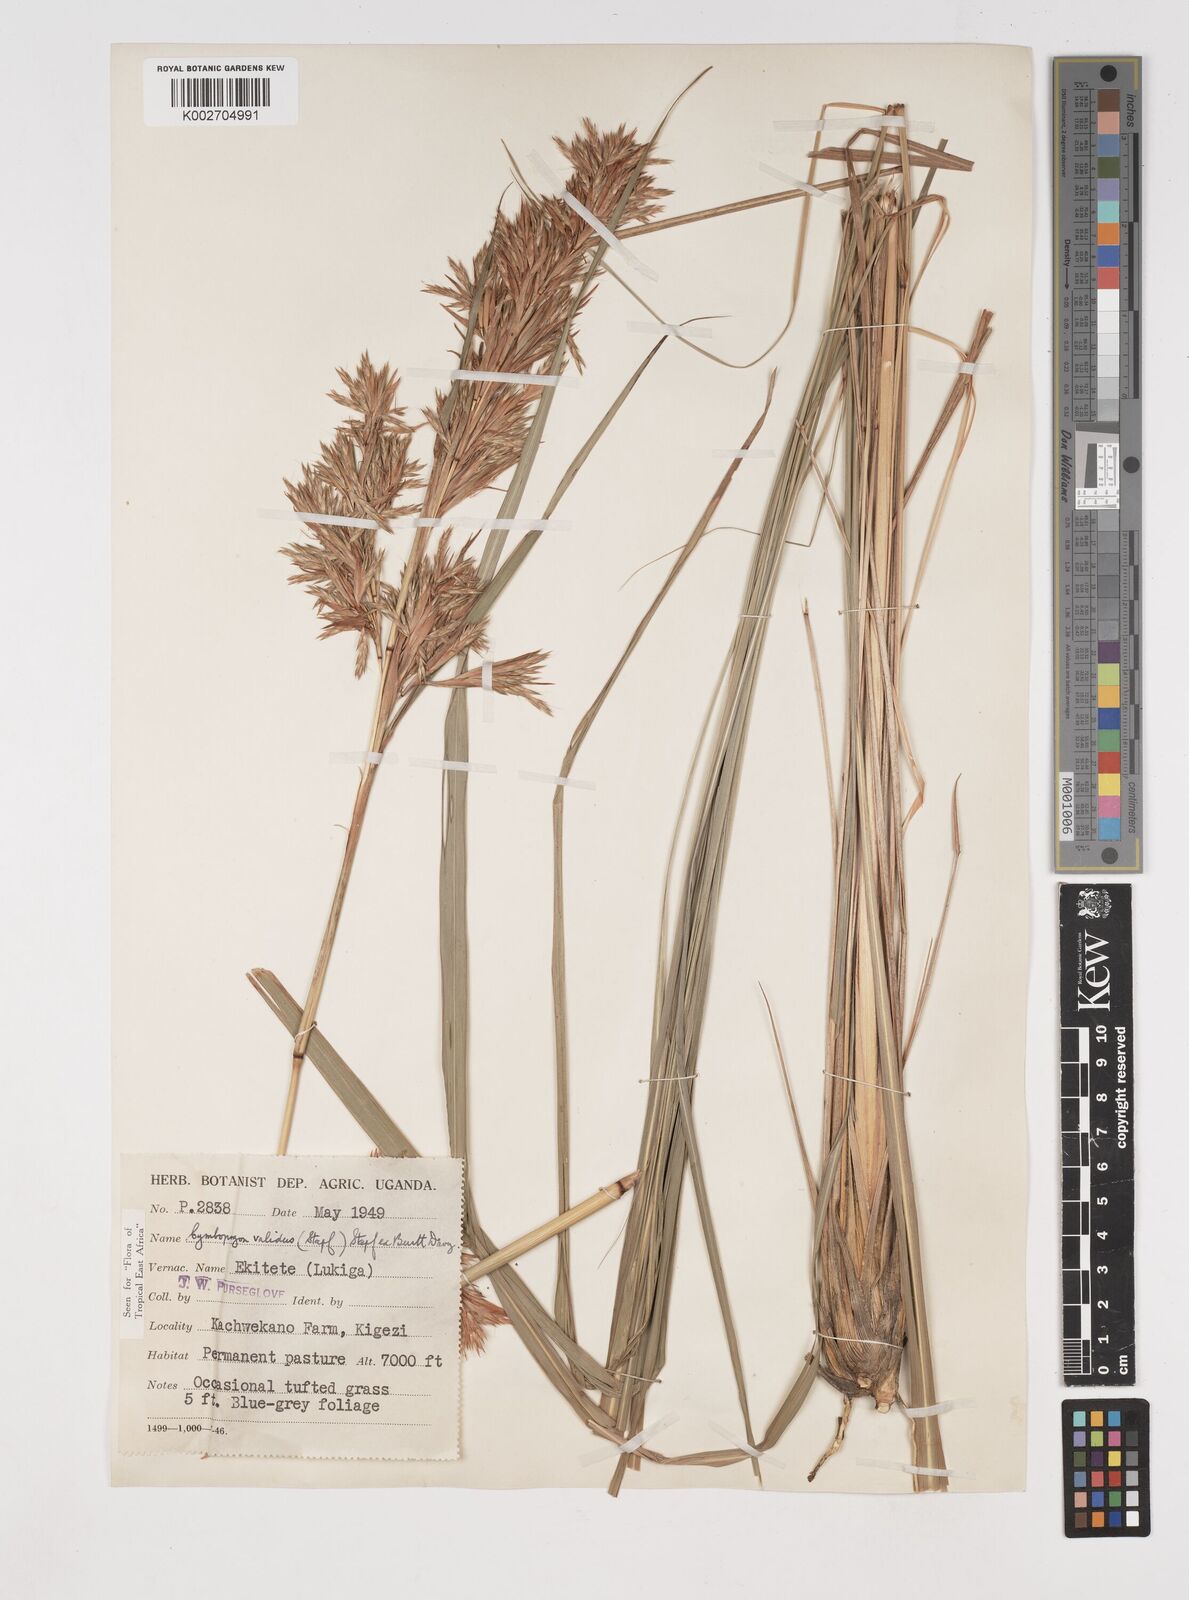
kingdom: Plantae
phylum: Tracheophyta
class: Liliopsida
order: Poales
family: Poaceae
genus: Cymbopogon
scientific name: Cymbopogon nardus
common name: Giant turpentine grass
